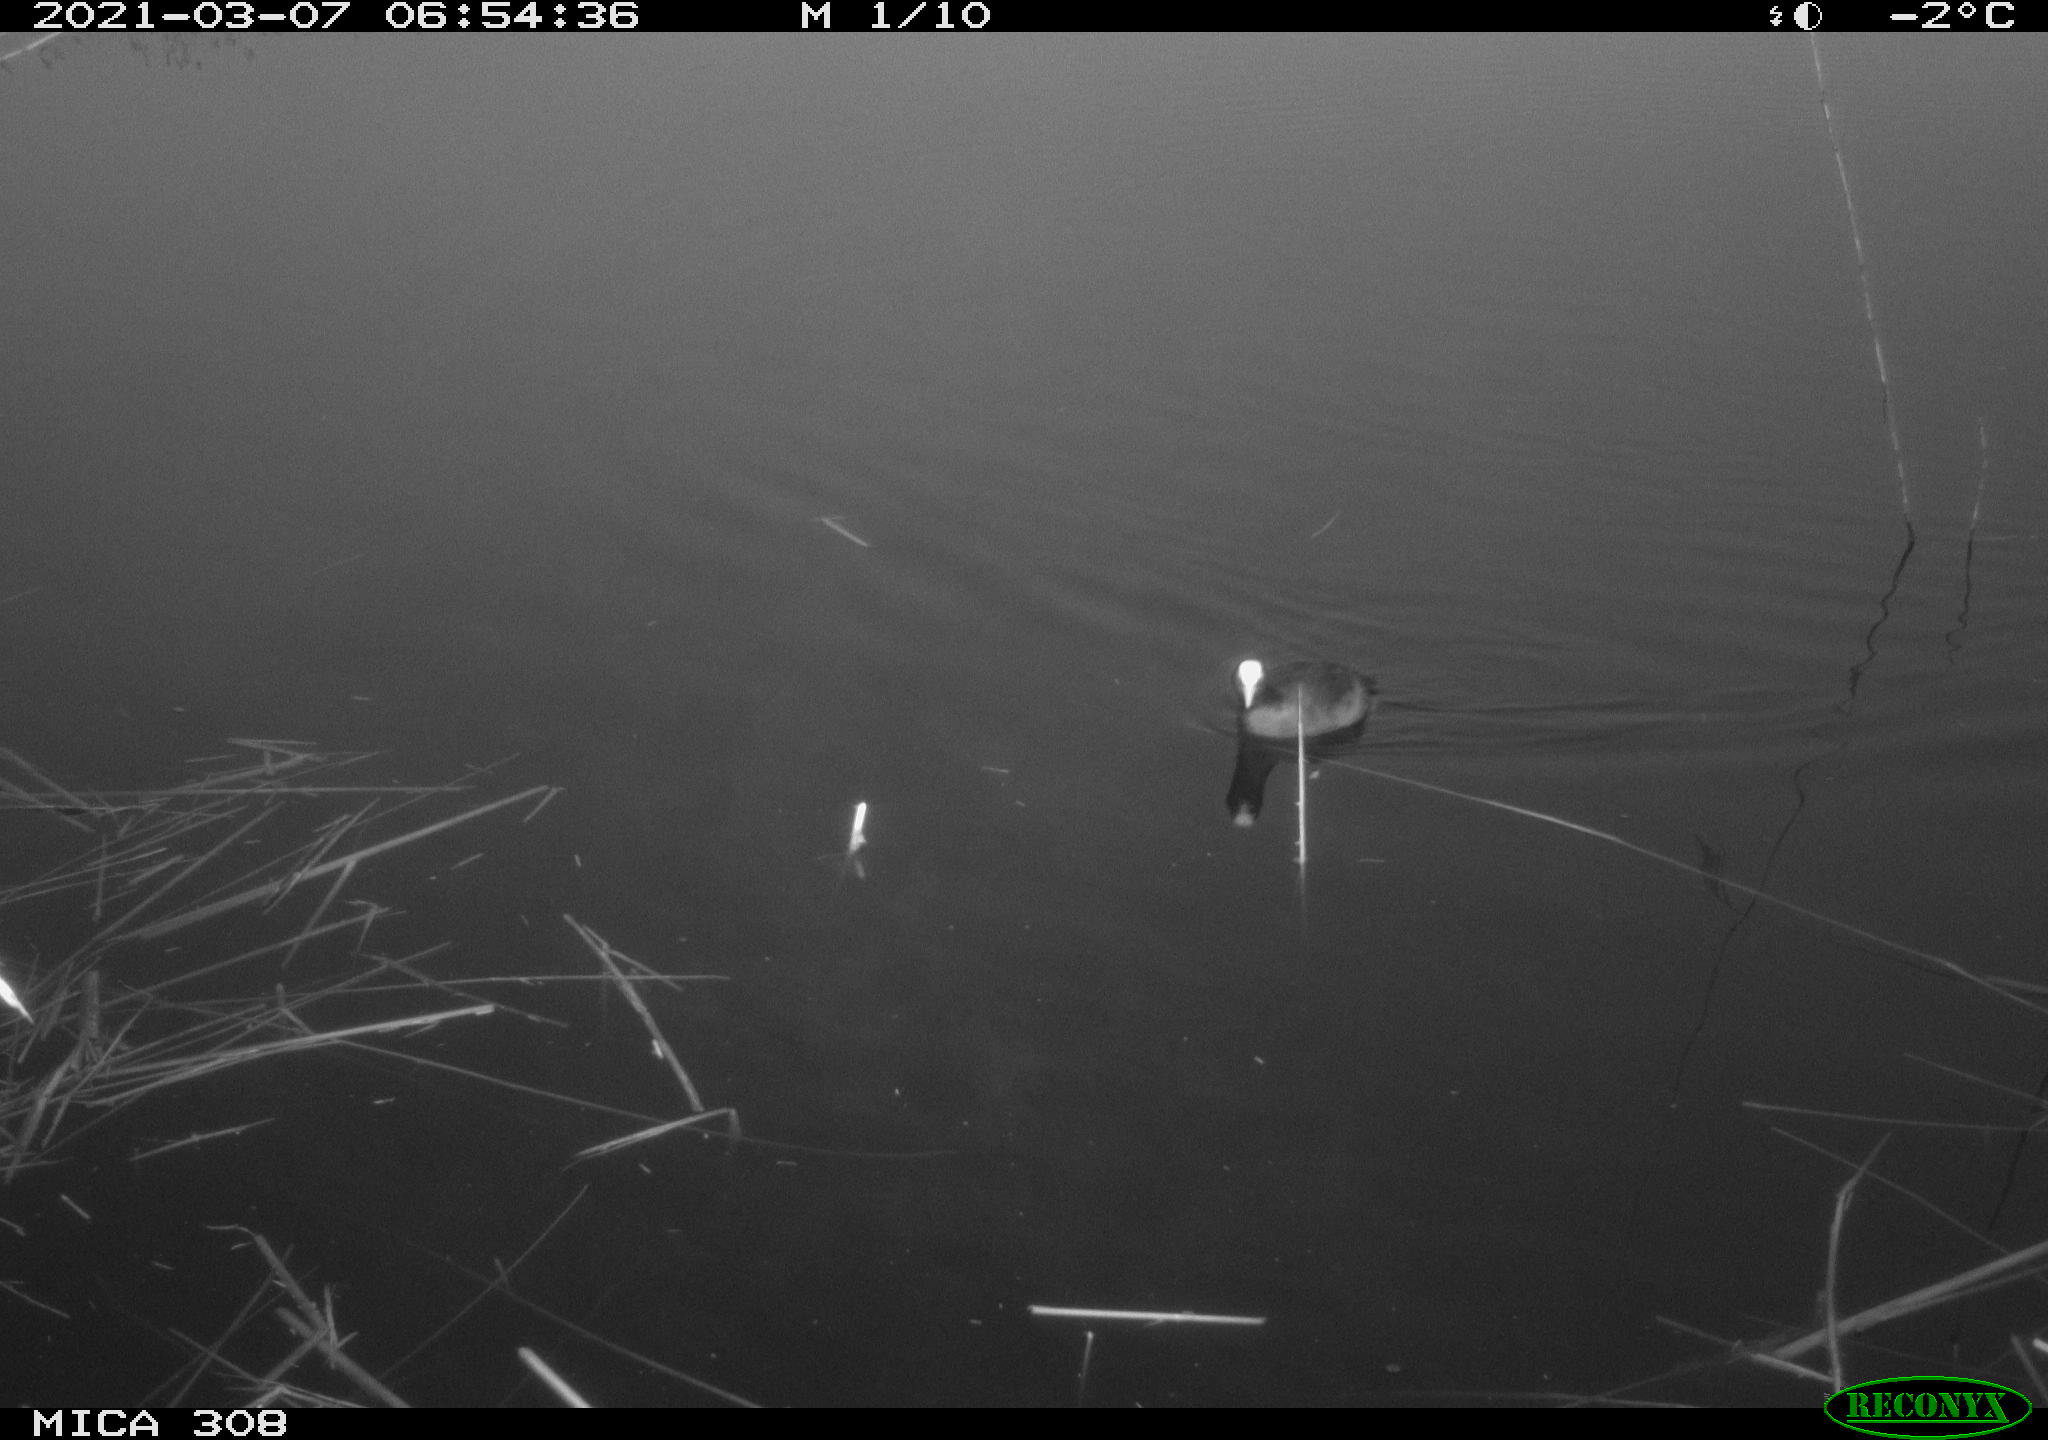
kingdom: Animalia
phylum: Chordata
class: Aves
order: Gruiformes
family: Rallidae
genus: Fulica
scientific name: Fulica atra
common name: Eurasian coot
